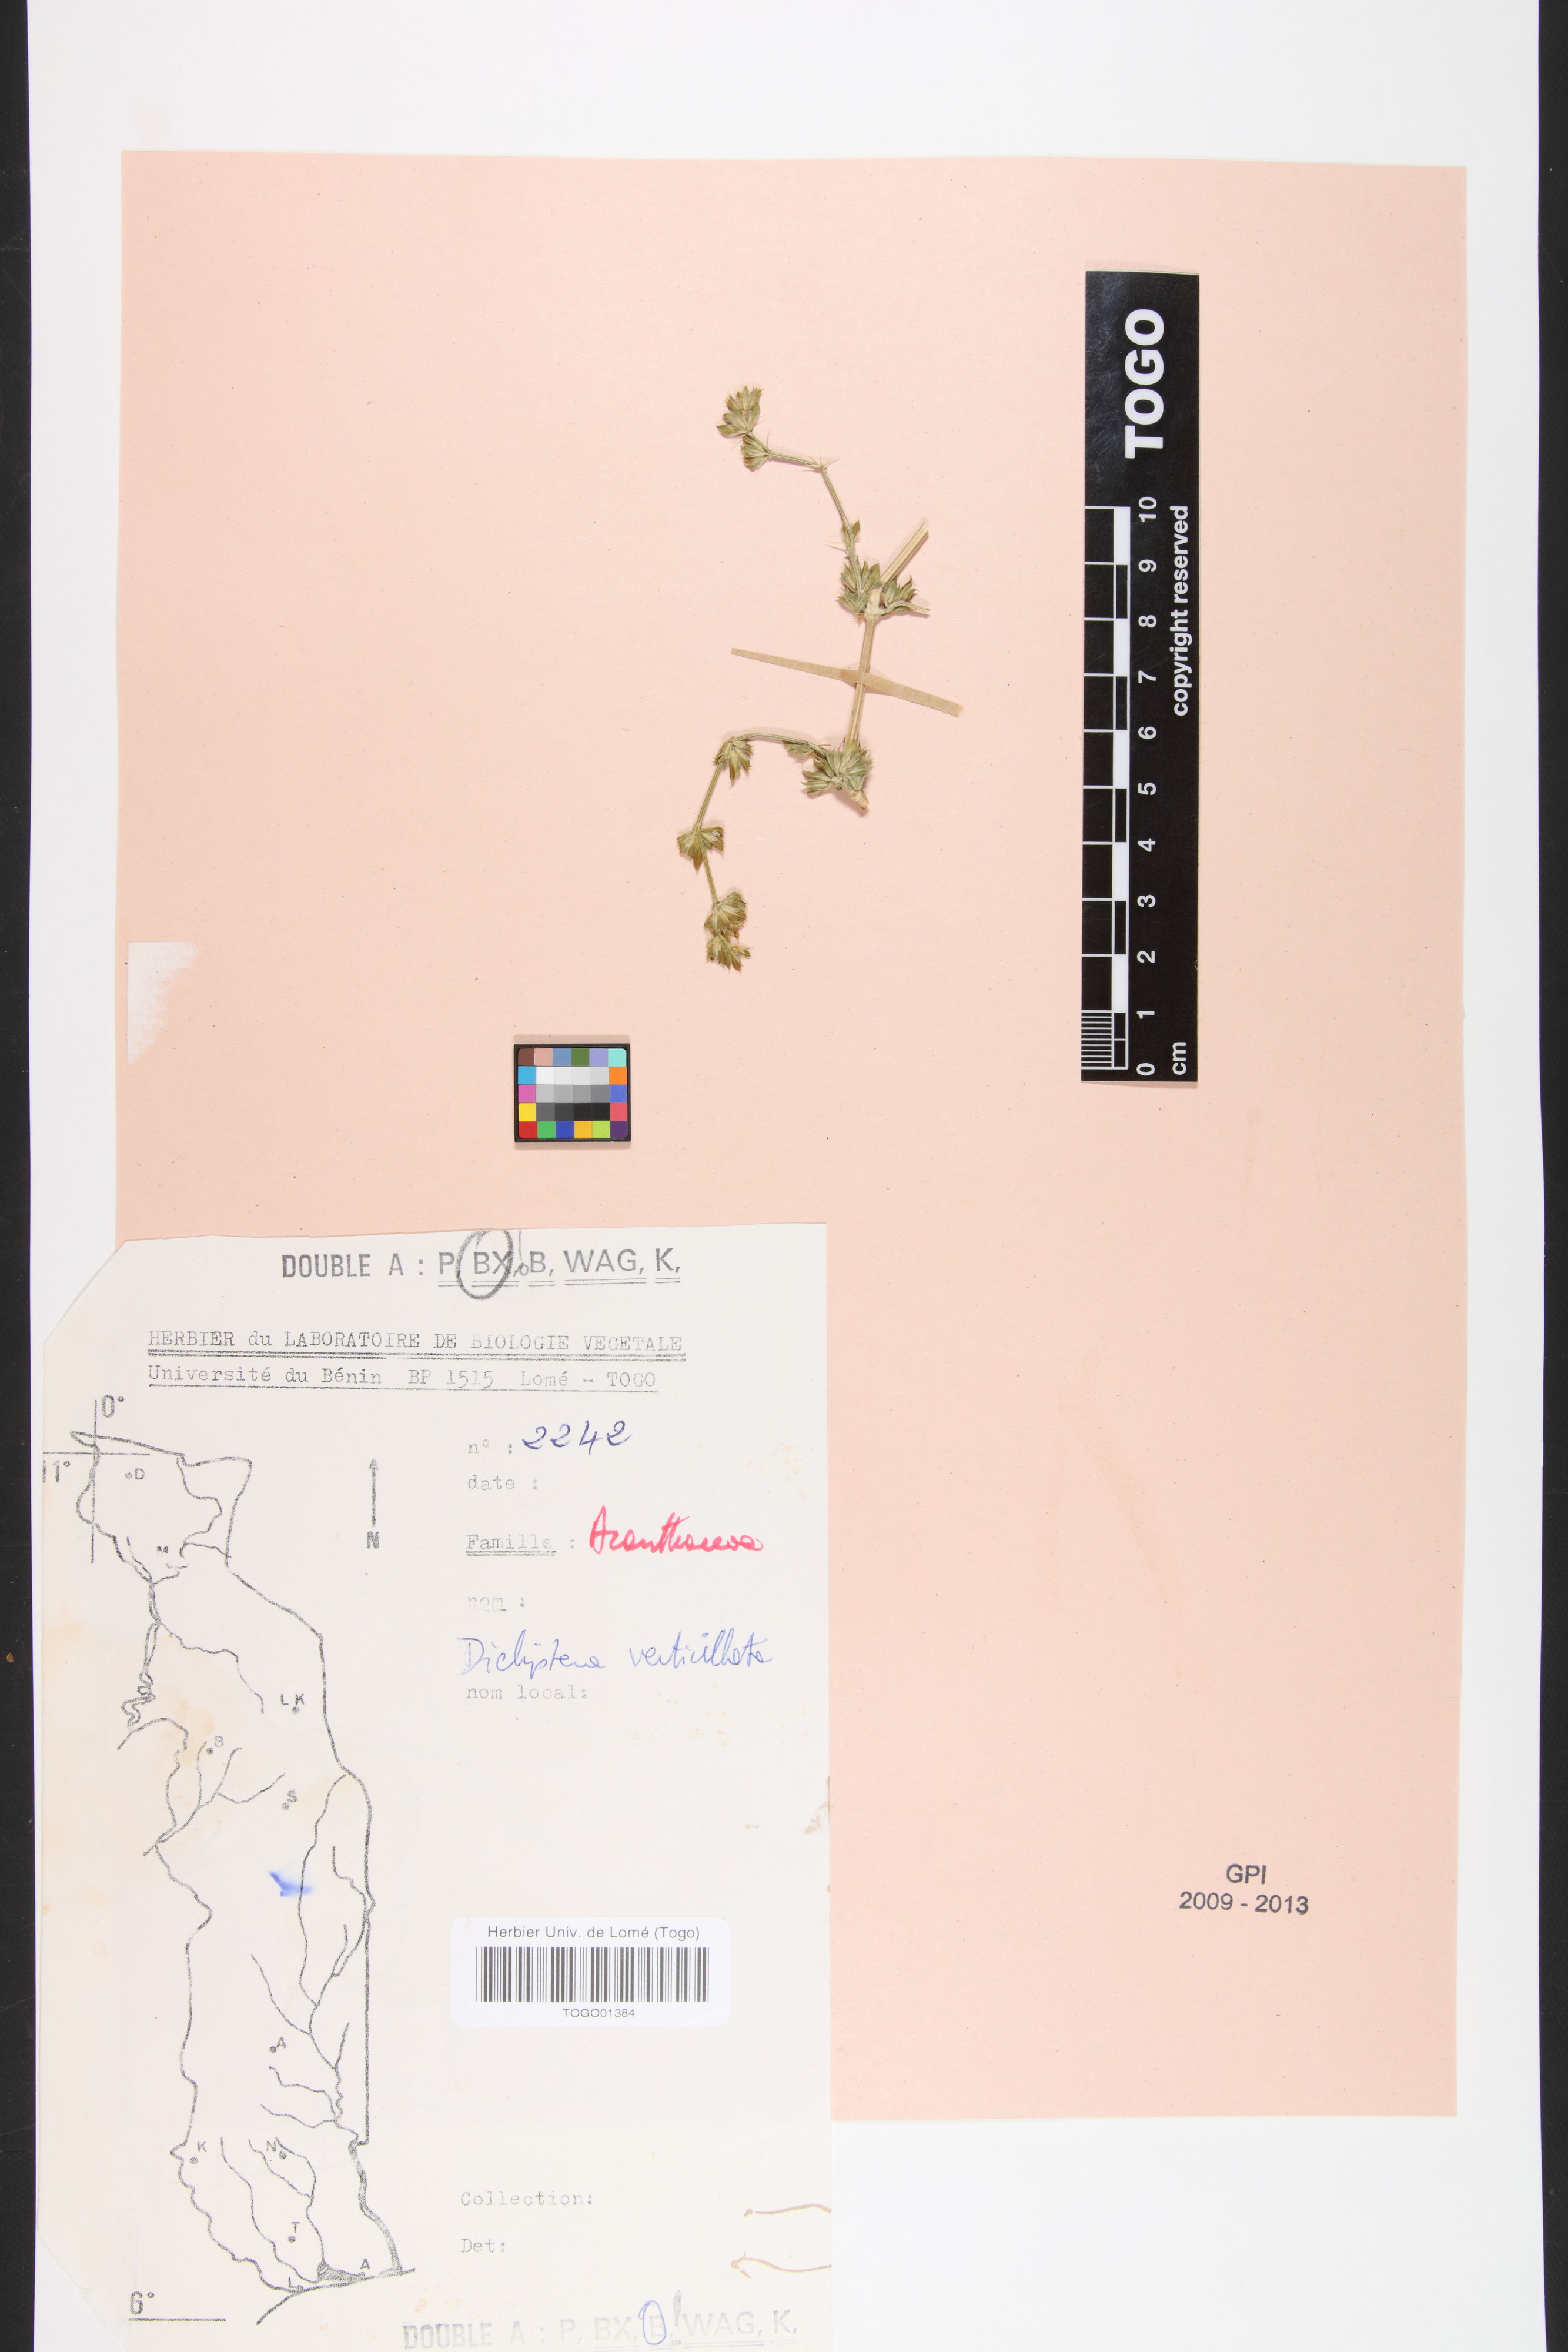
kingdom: Plantae
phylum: Tracheophyta
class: Magnoliopsida
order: Lamiales
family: Acanthaceae
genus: Dicliptera
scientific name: Dicliptera verticillata
